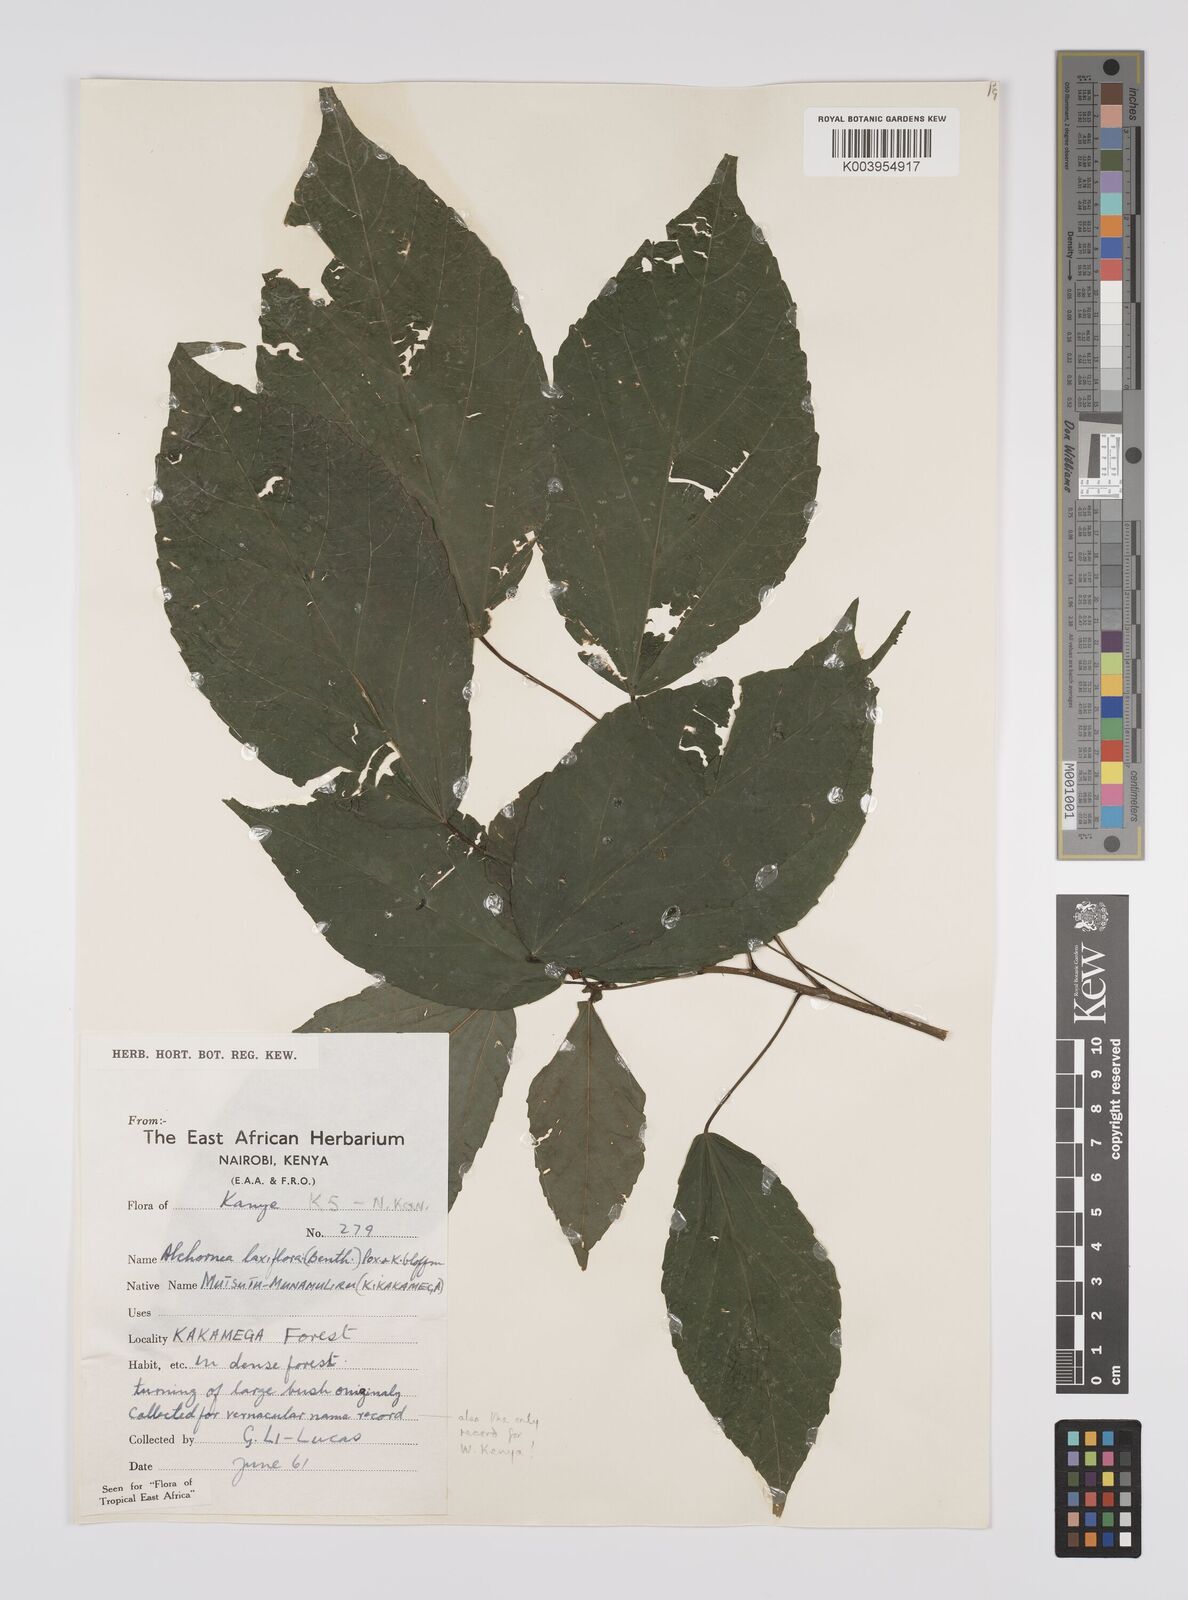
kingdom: Plantae
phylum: Tracheophyta
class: Magnoliopsida
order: Malpighiales
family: Euphorbiaceae
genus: Alchornea
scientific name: Alchornea laxiflora
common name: Lowveld bead-string
